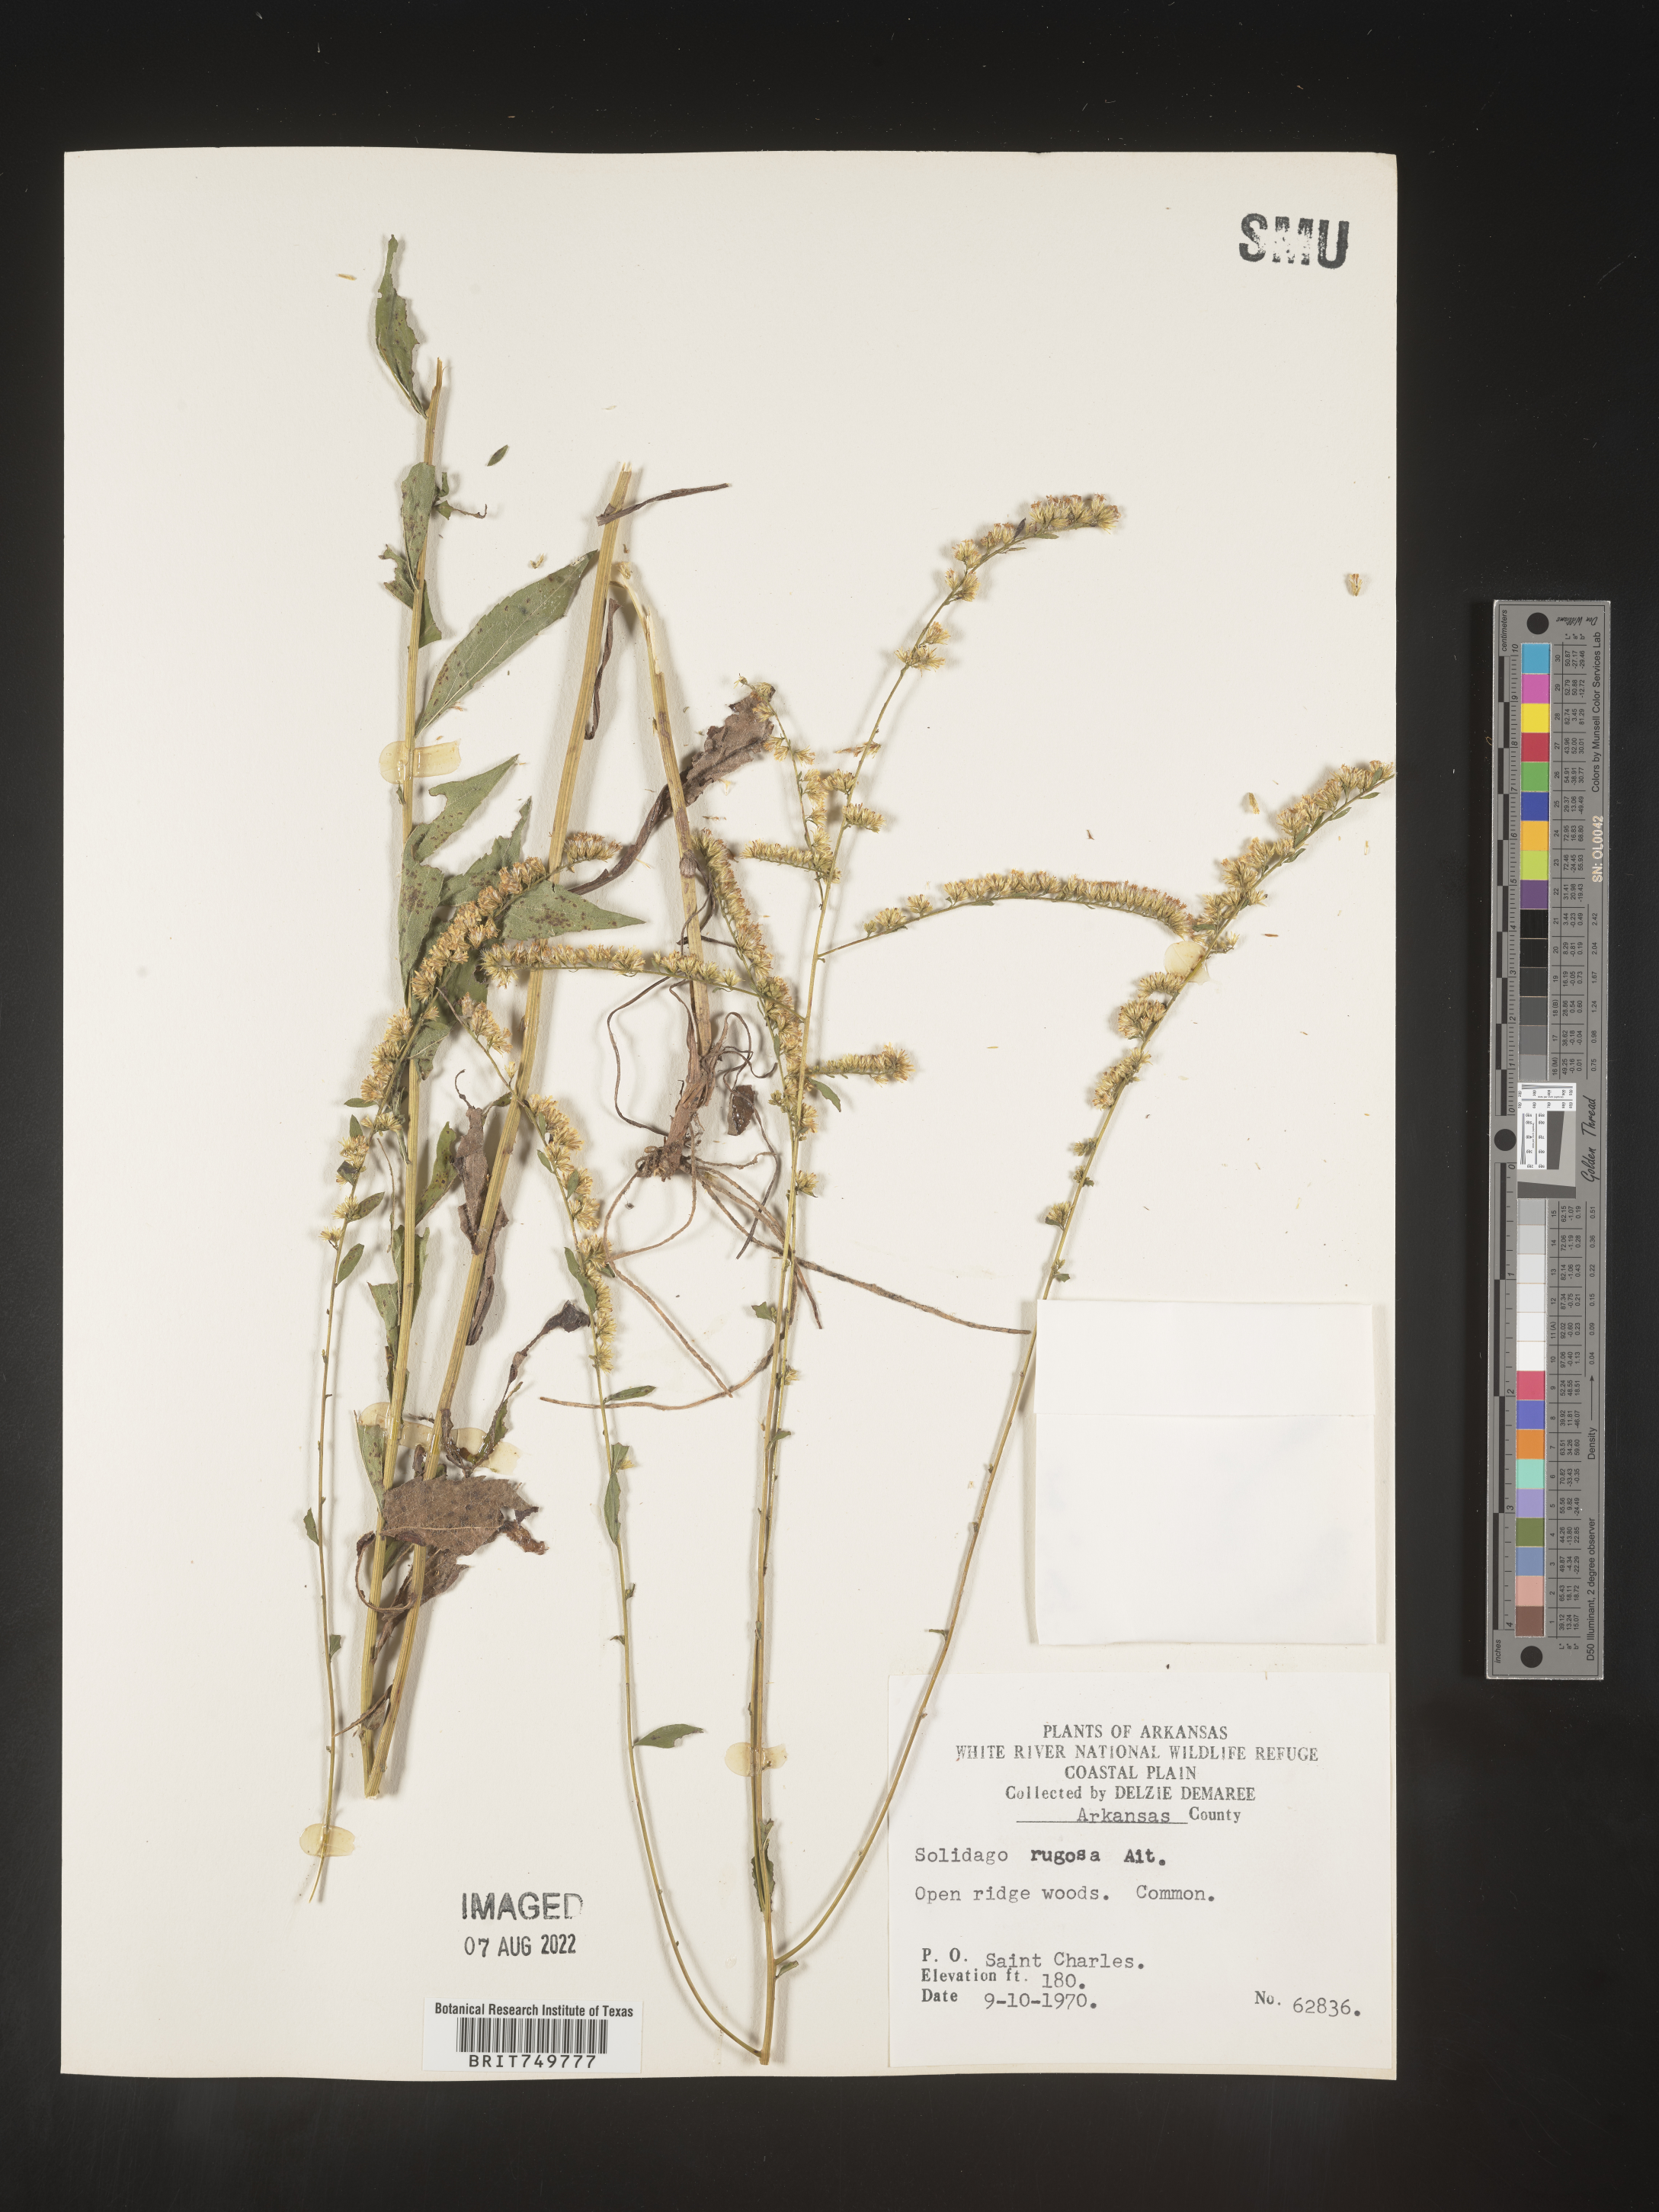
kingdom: Plantae
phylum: Tracheophyta
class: Magnoliopsida
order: Asterales
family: Asteraceae
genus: Solidago
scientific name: Solidago ulmifolia
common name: Elm-leaf goldenrod
